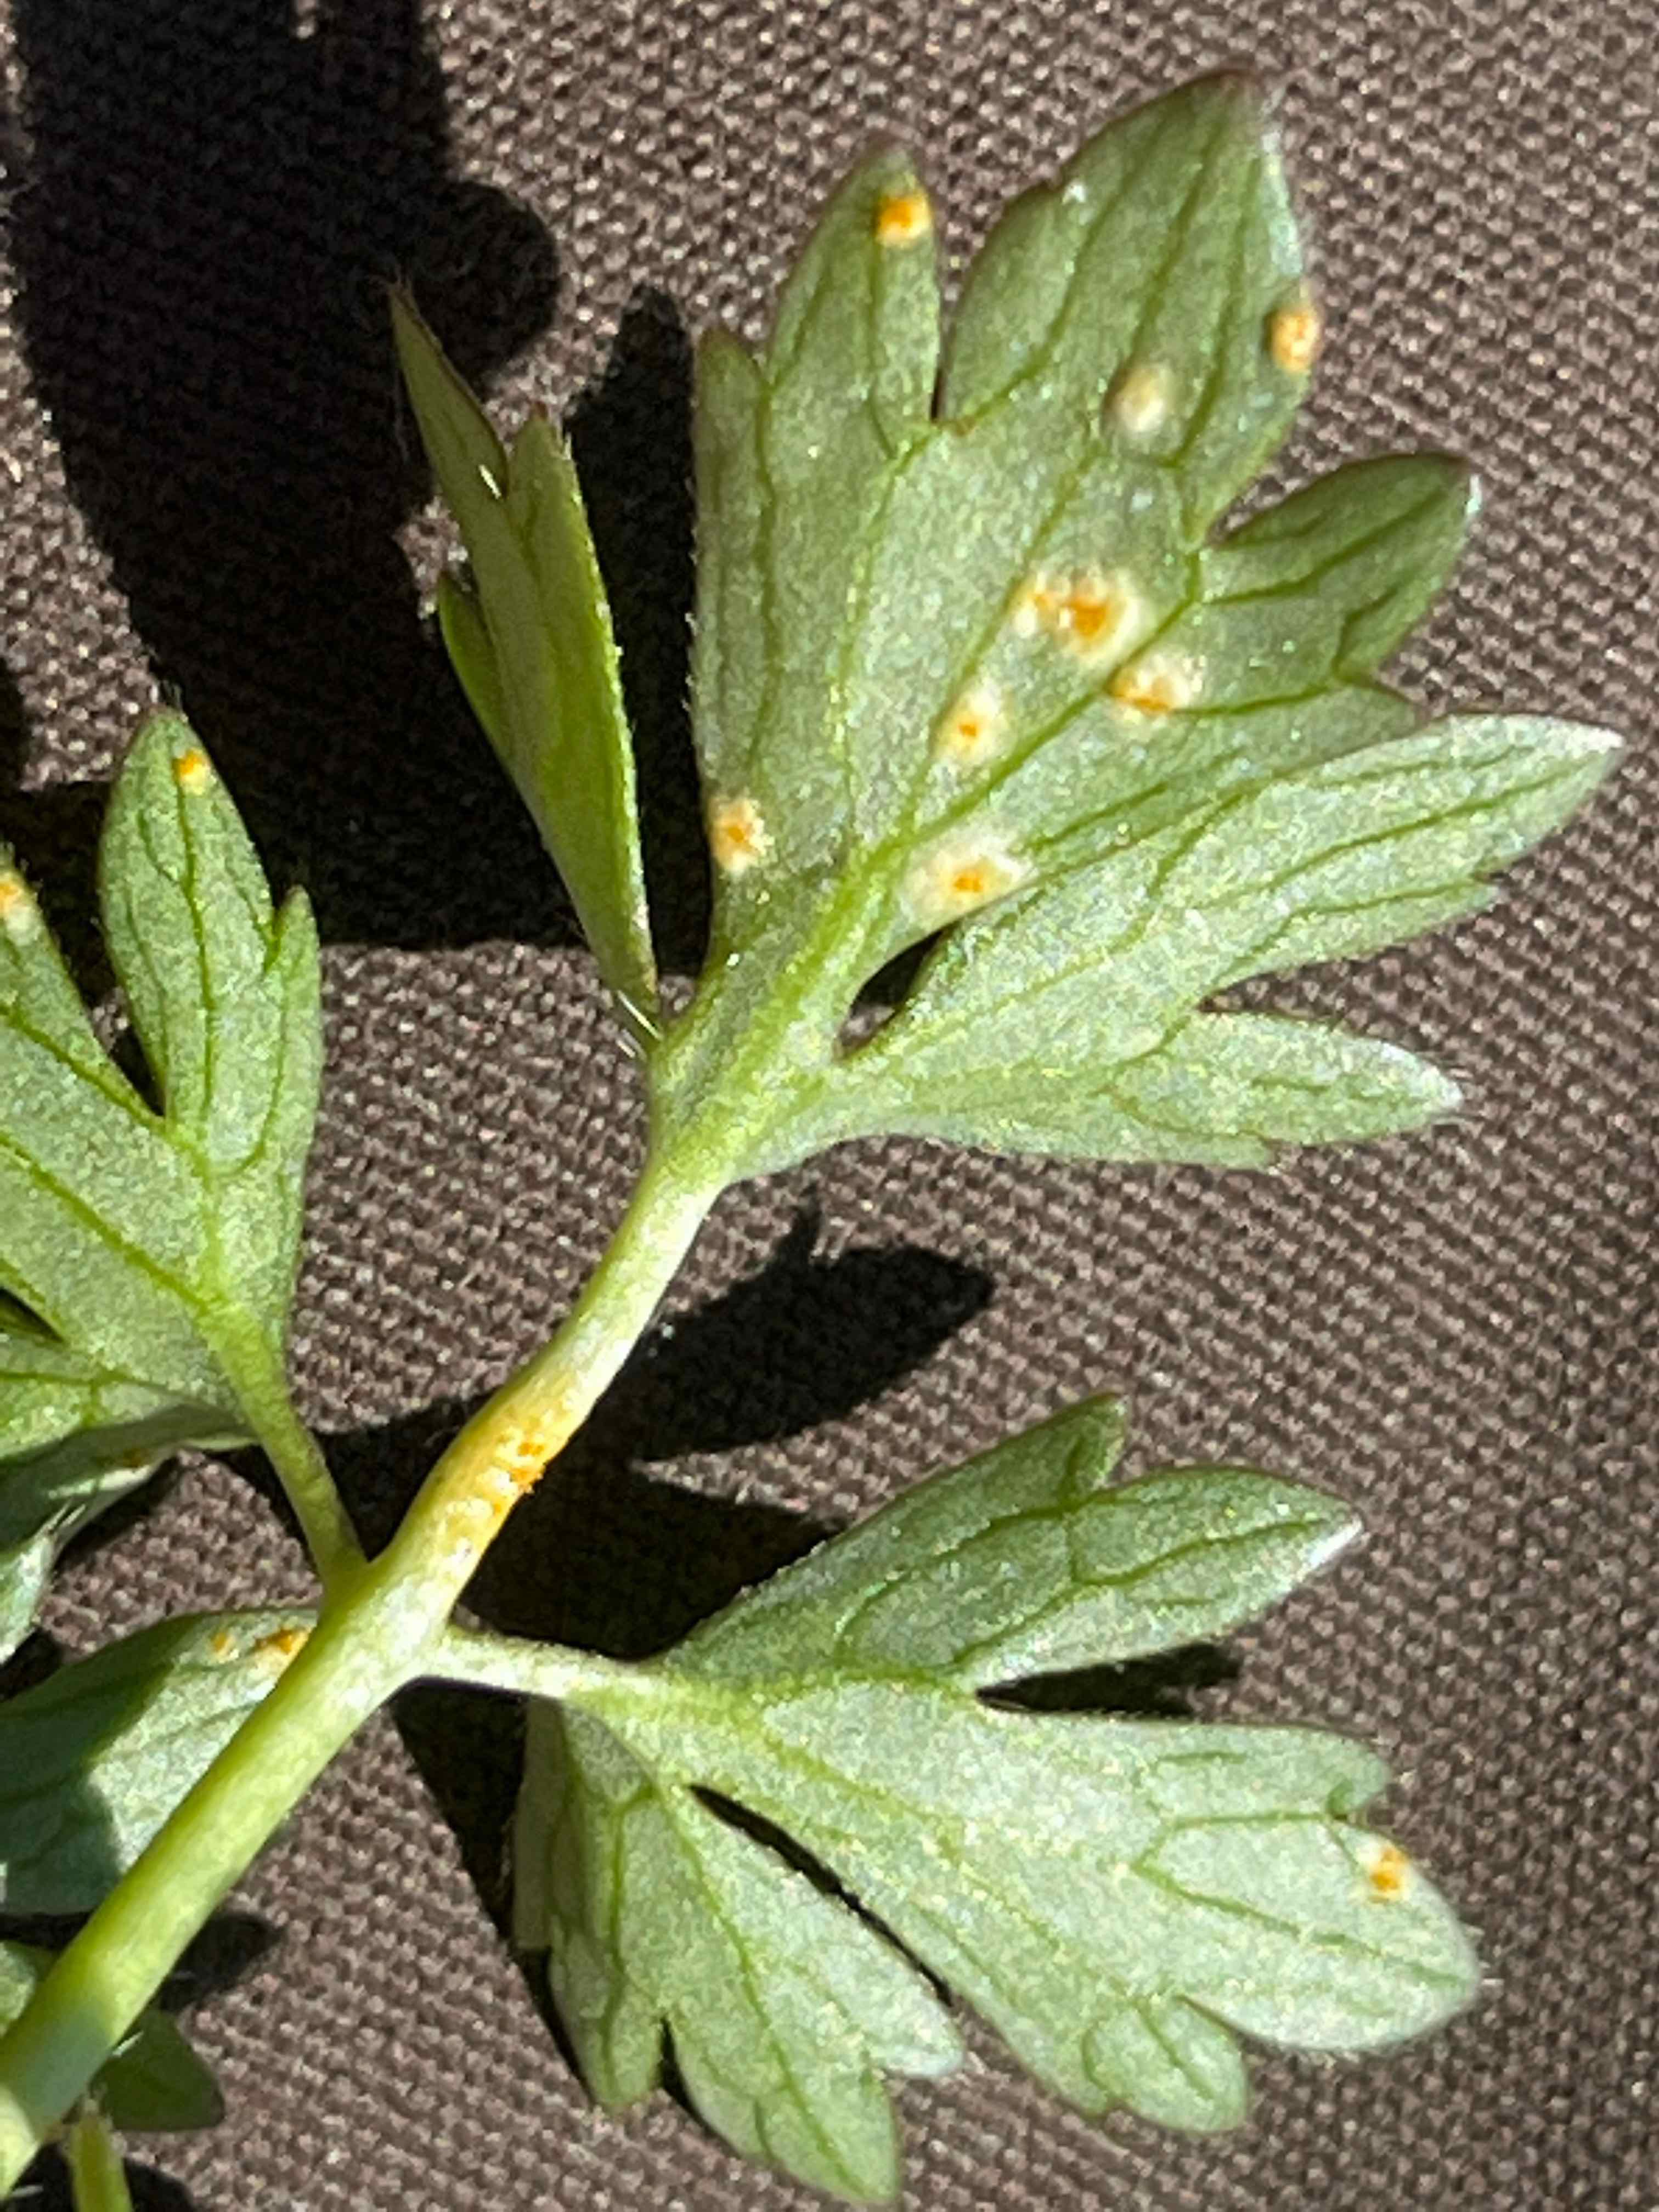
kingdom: Fungi
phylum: Basidiomycota
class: Pucciniomycetes
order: Pucciniales
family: Pucciniaceae
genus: Uromyces
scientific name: Uromyces dactylidis
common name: ranunkel-encellerust
